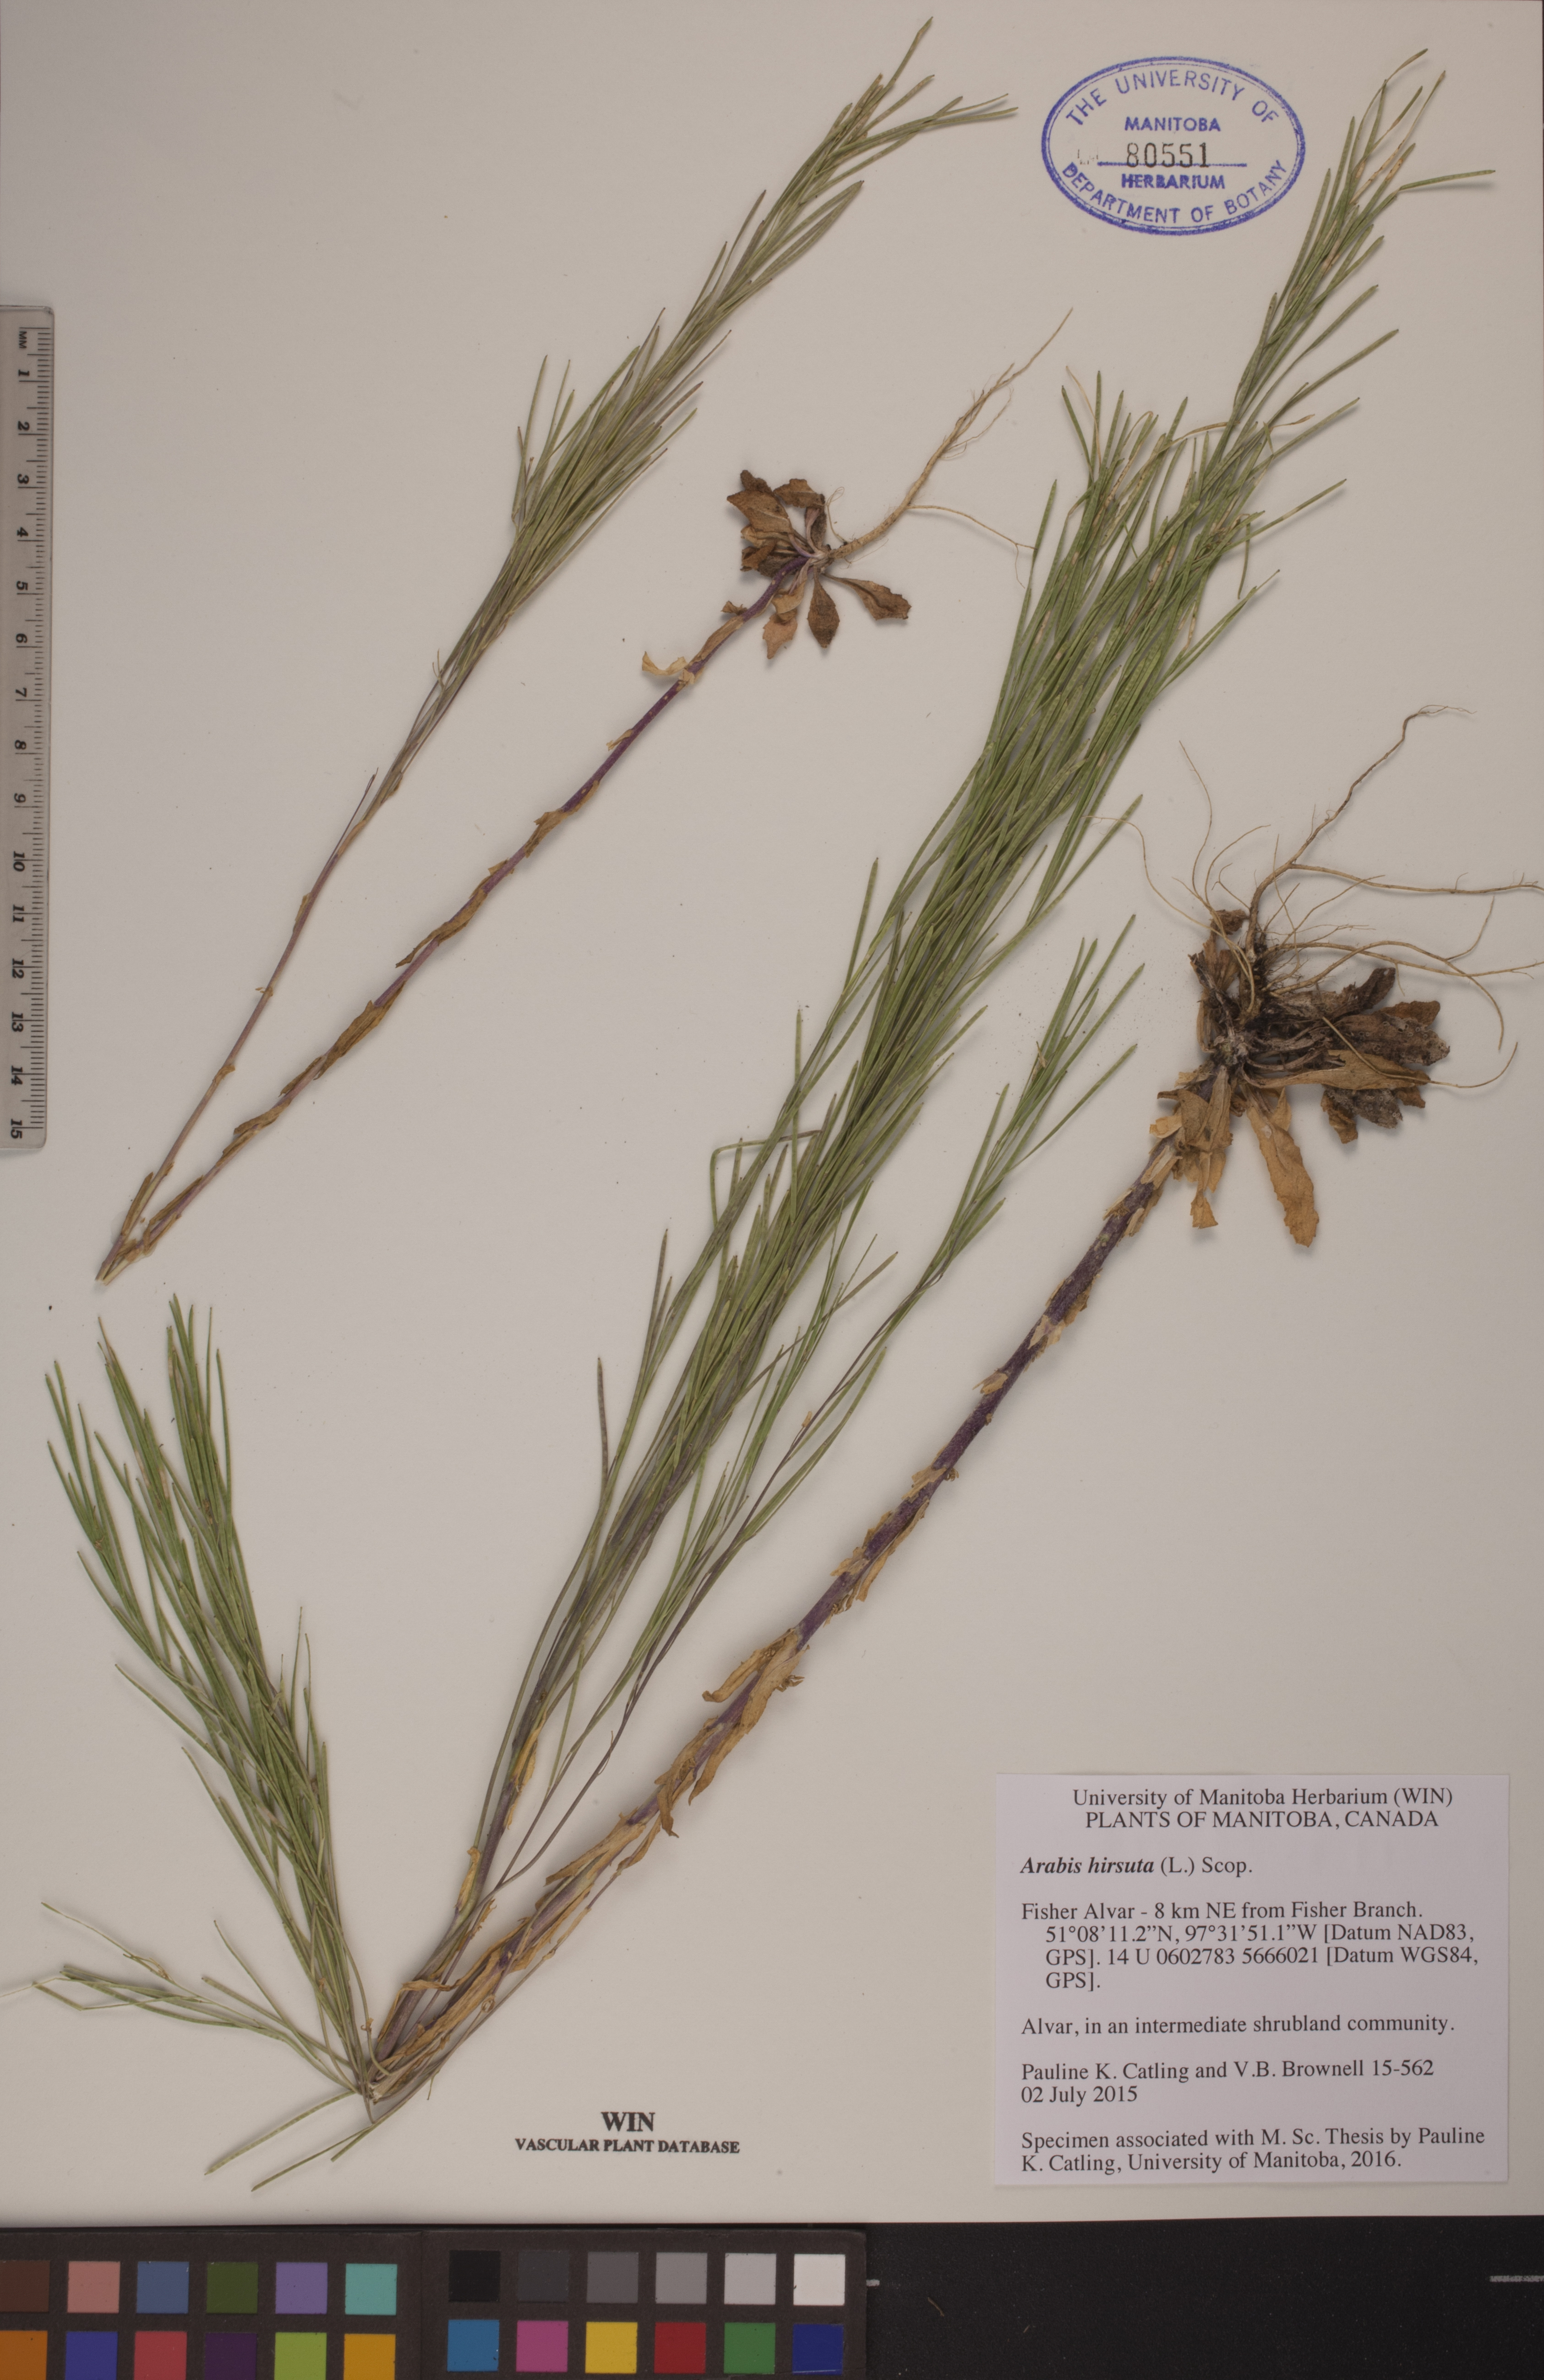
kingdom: Plantae
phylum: Tracheophyta
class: Magnoliopsida
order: Brassicales
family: Brassicaceae
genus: Arabis
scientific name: Arabis hirsuta
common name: Hairy rock-cress
